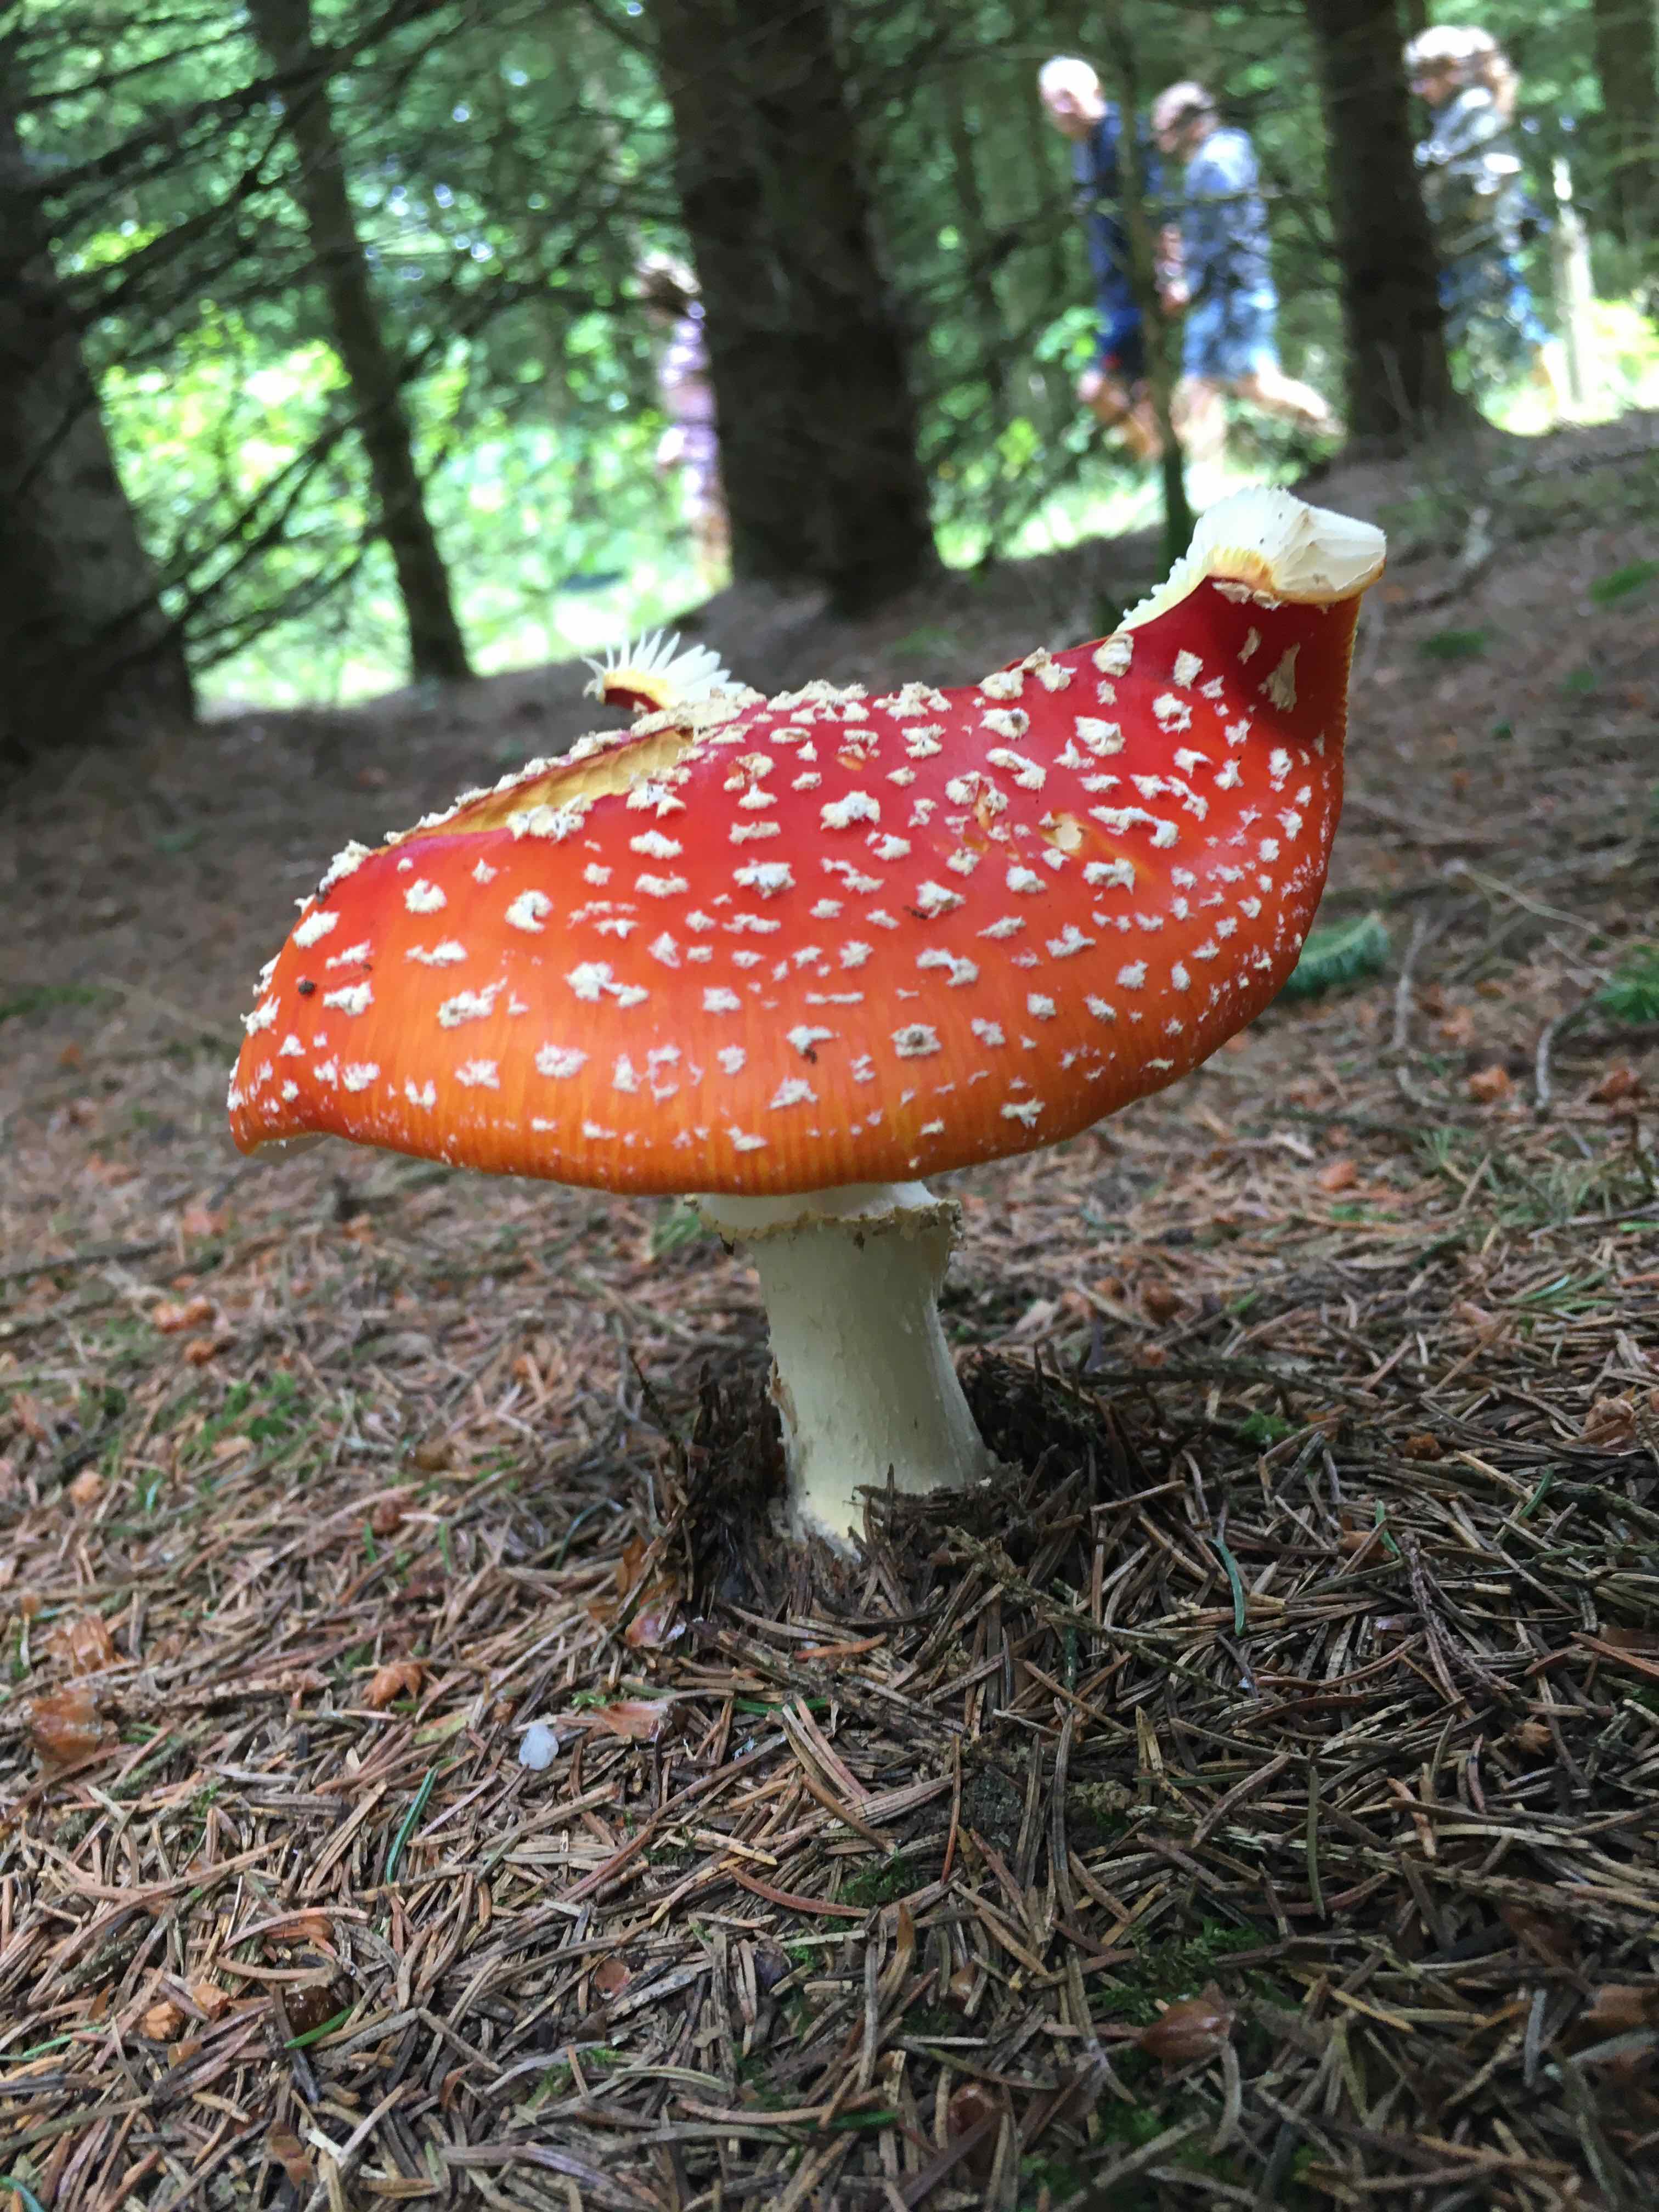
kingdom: Fungi
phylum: Basidiomycota
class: Agaricomycetes
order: Agaricales
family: Amanitaceae
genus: Amanita
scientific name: Amanita muscaria
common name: rød fluesvamp
